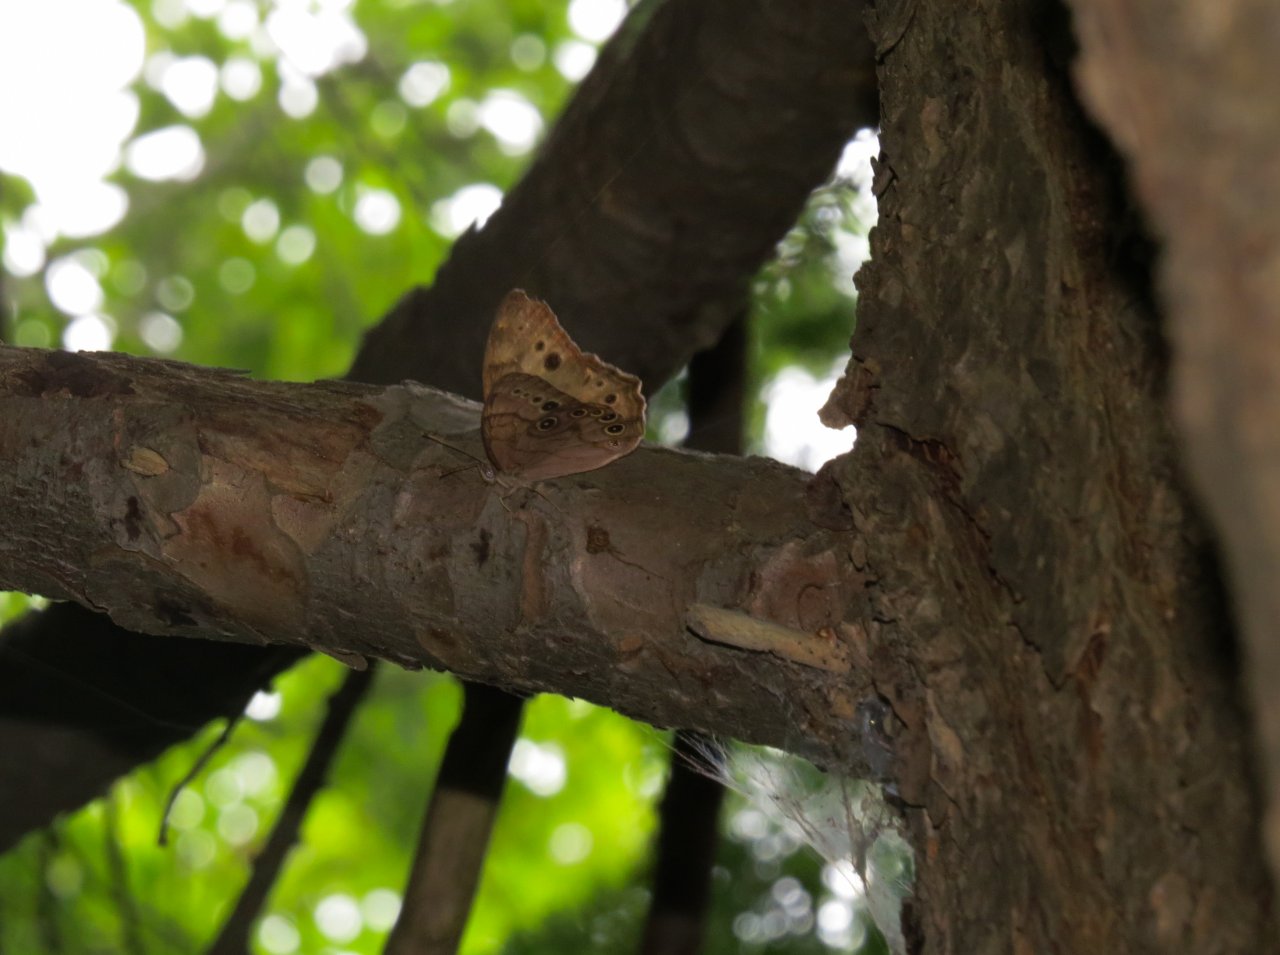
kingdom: Animalia
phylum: Arthropoda
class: Insecta
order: Lepidoptera
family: Nymphalidae
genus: Lethe
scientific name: Lethe anthedon
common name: Northern Pearly-Eye
